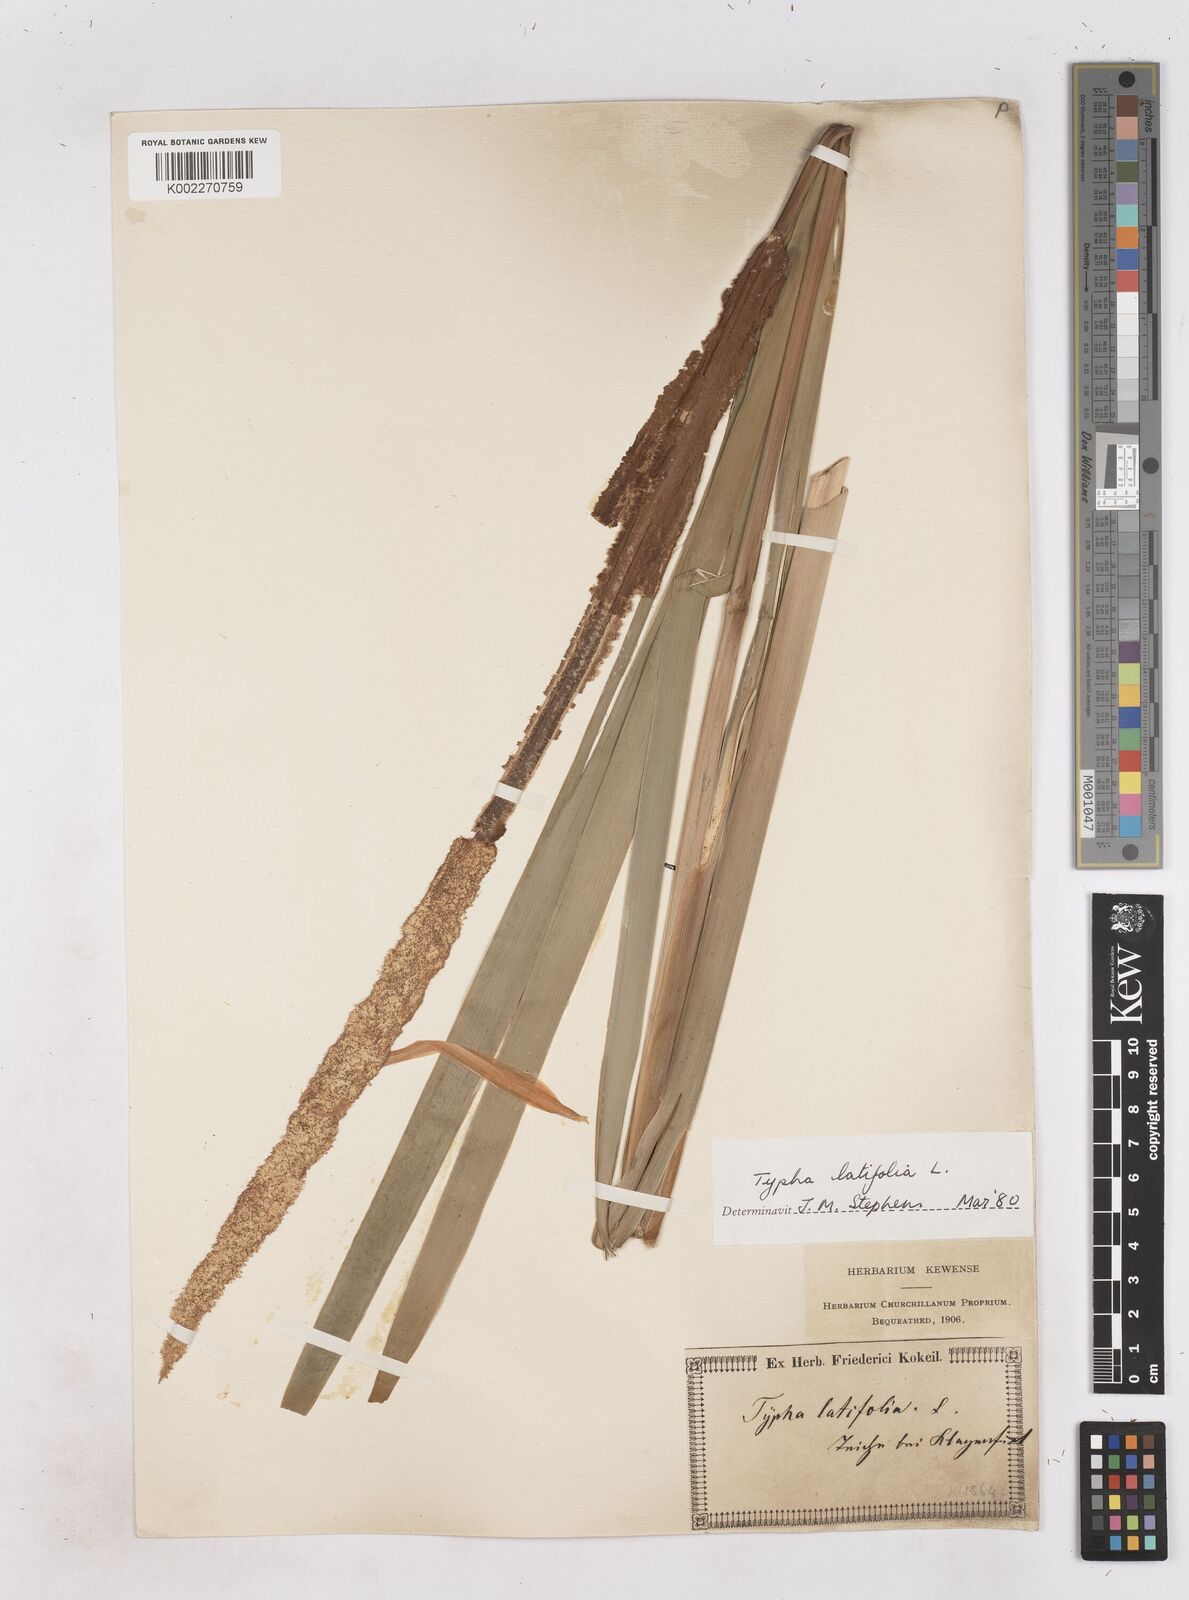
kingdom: Plantae
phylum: Tracheophyta
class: Liliopsida
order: Poales
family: Typhaceae
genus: Typha
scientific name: Typha latifolia
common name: Broadleaf cattail
